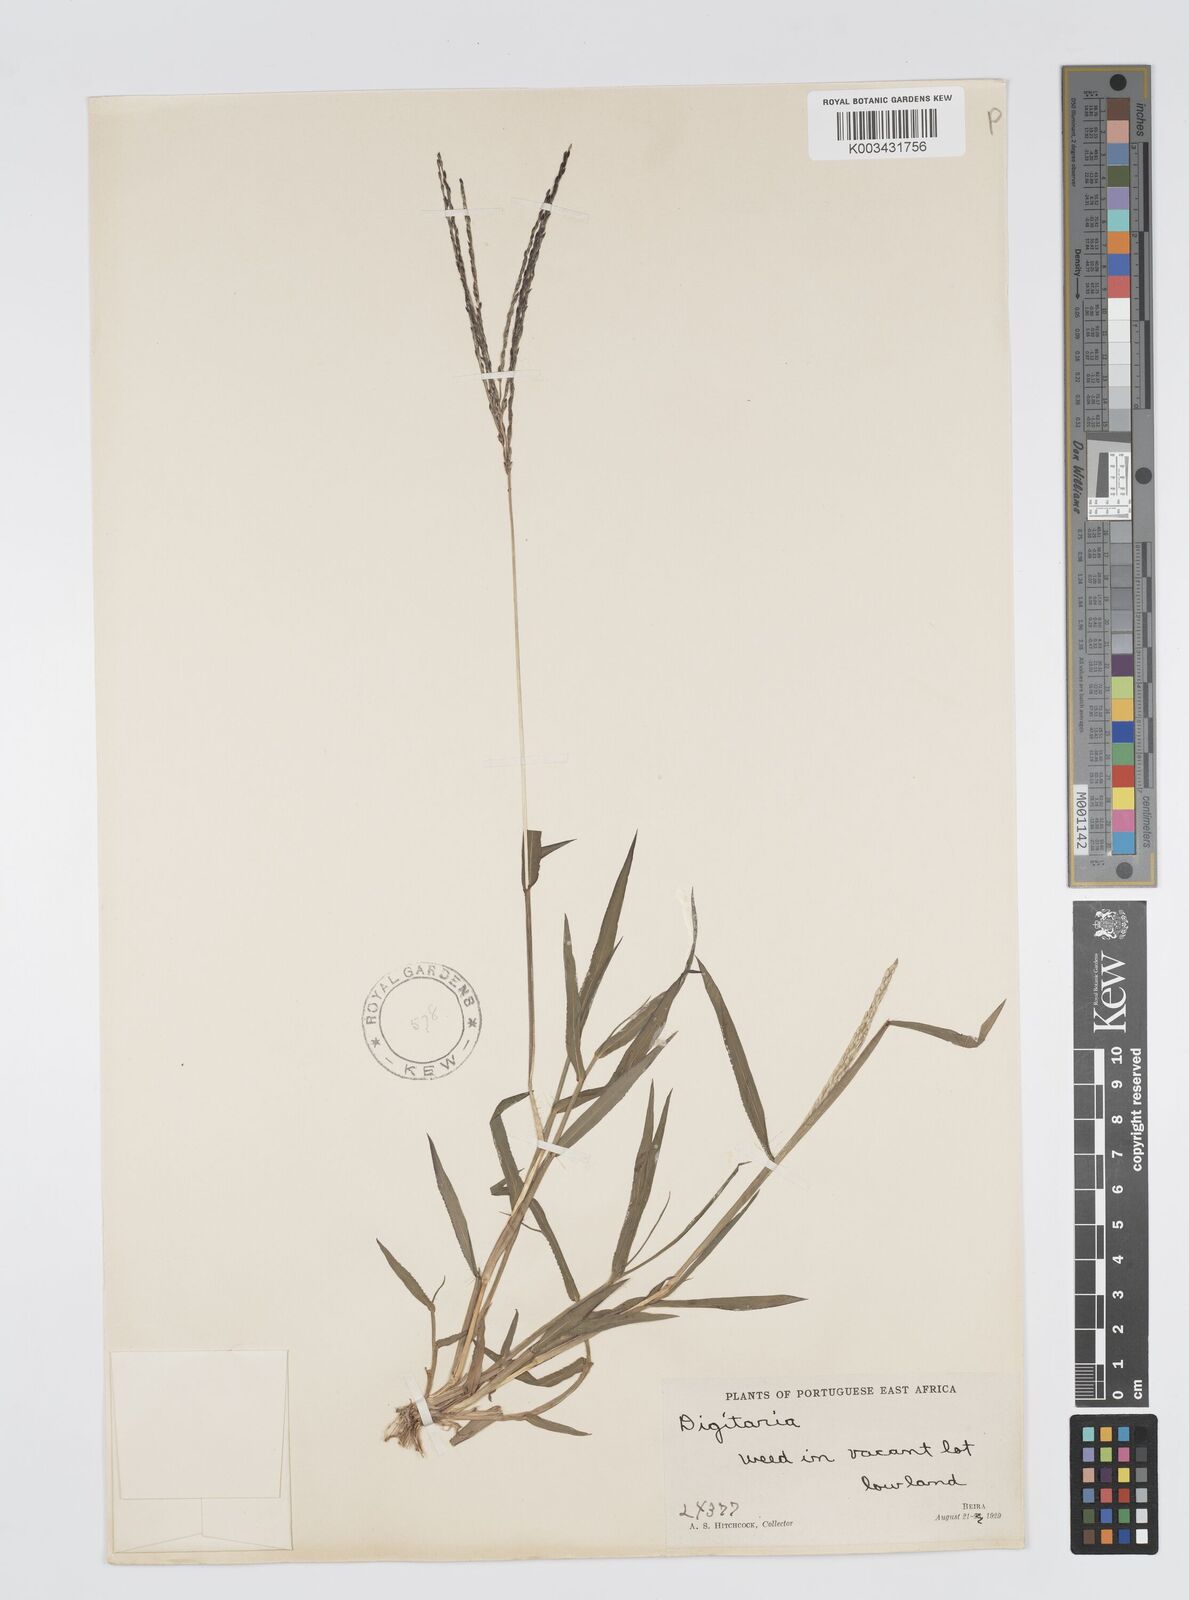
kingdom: Plantae
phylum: Tracheophyta
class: Liliopsida
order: Poales
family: Poaceae
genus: Digitaria
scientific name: Digitaria nuda
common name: Naked crabgrass
